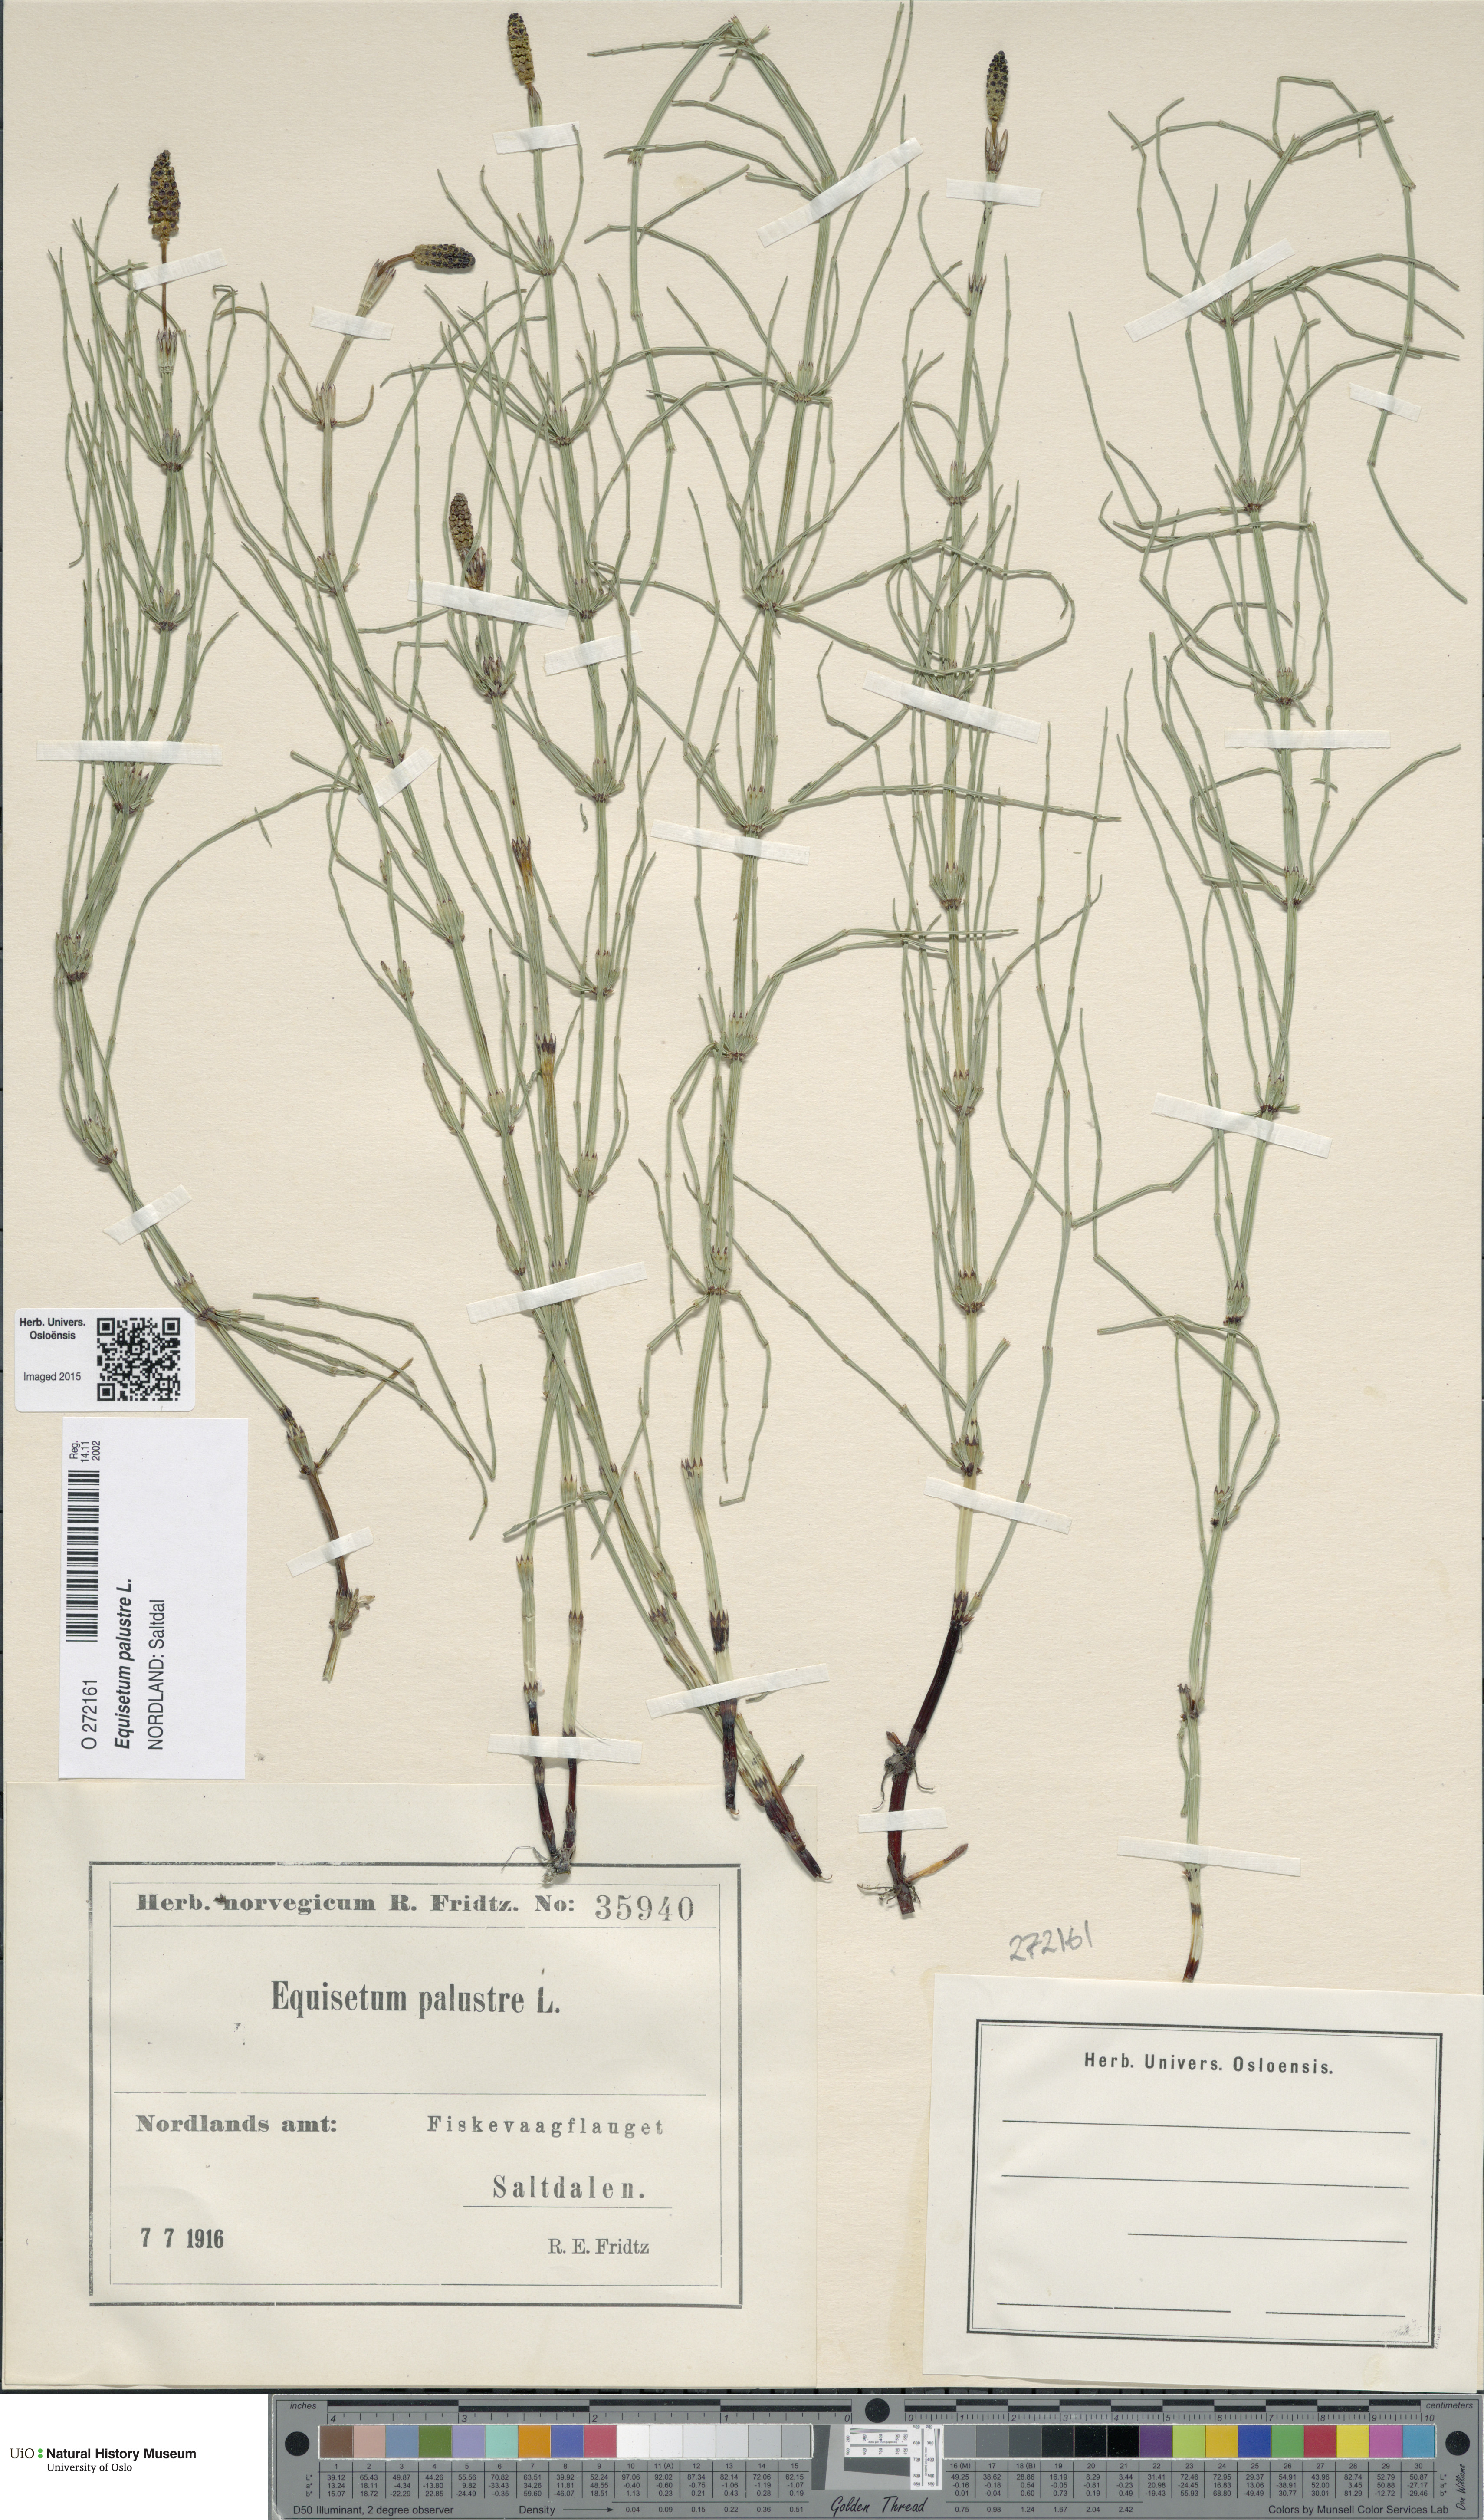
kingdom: Plantae
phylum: Tracheophyta
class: Polypodiopsida
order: Equisetales
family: Equisetaceae
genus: Equisetum
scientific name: Equisetum palustre
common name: Marsh horsetail
